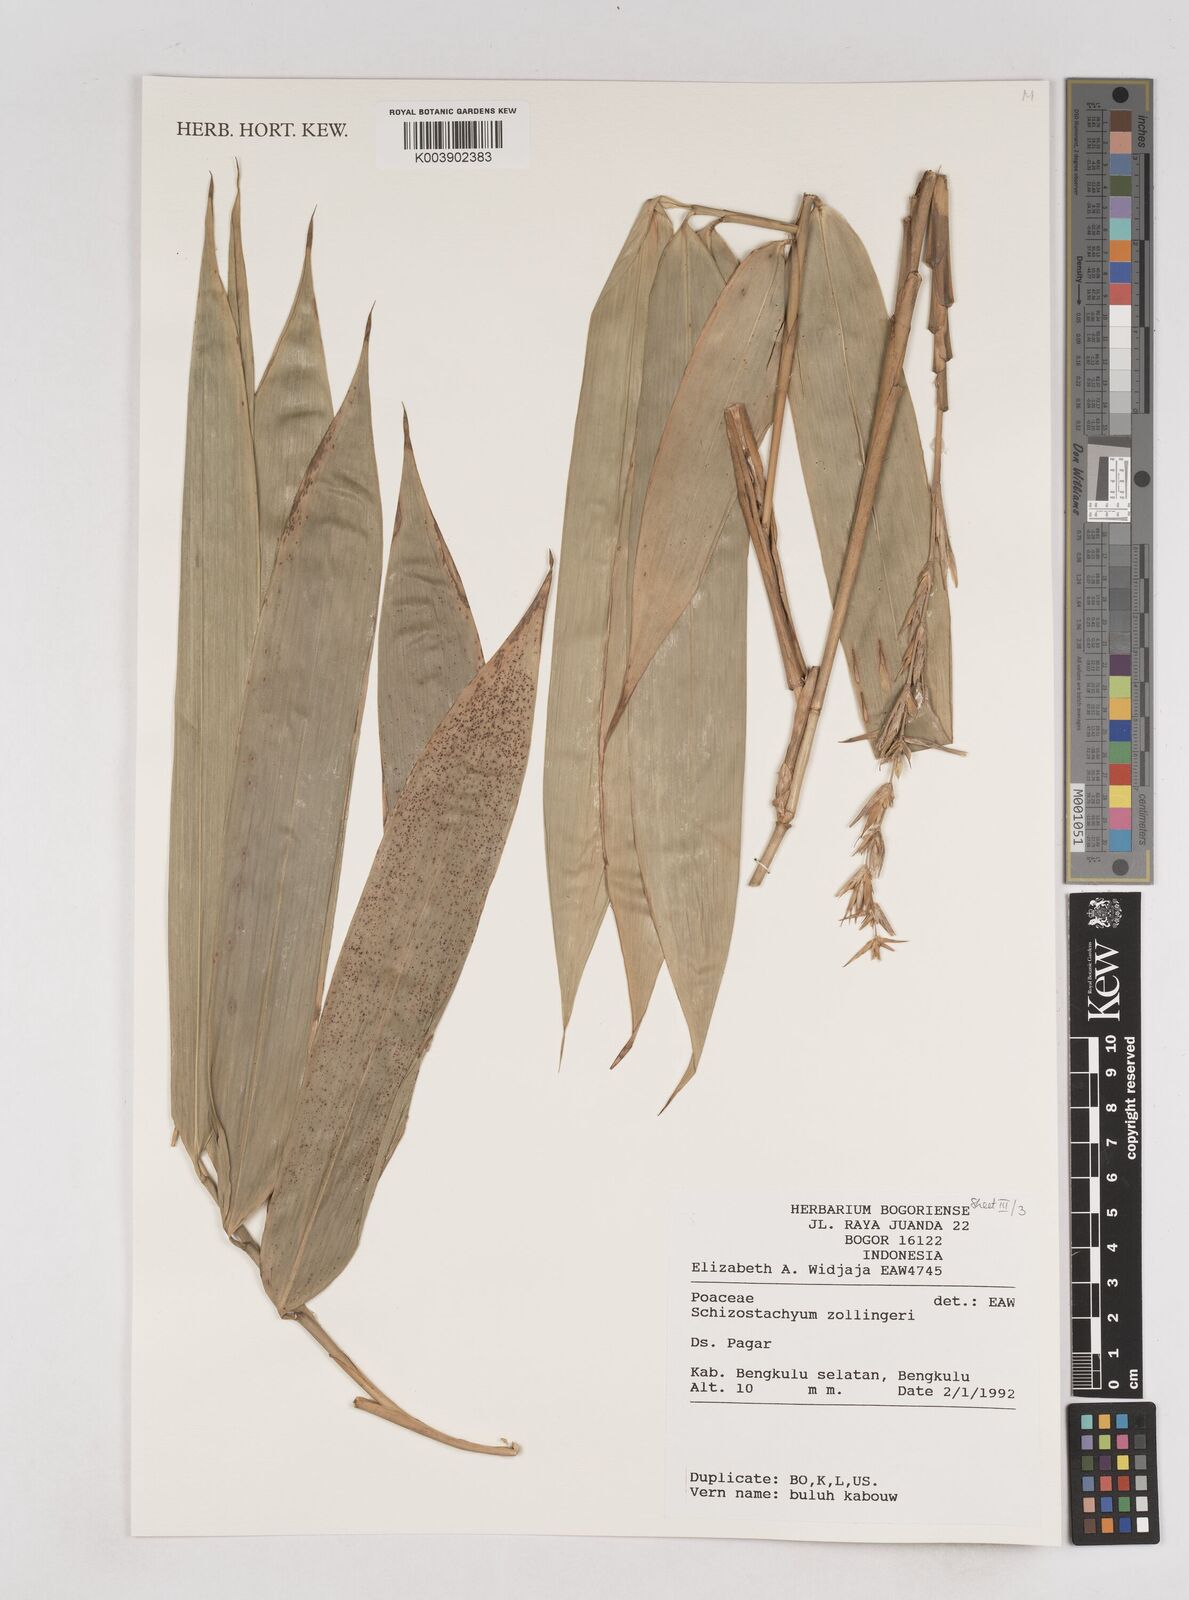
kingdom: Plantae
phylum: Tracheophyta
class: Liliopsida
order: Poales
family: Poaceae
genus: Schizostachyum
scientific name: Schizostachyum zollingeri
